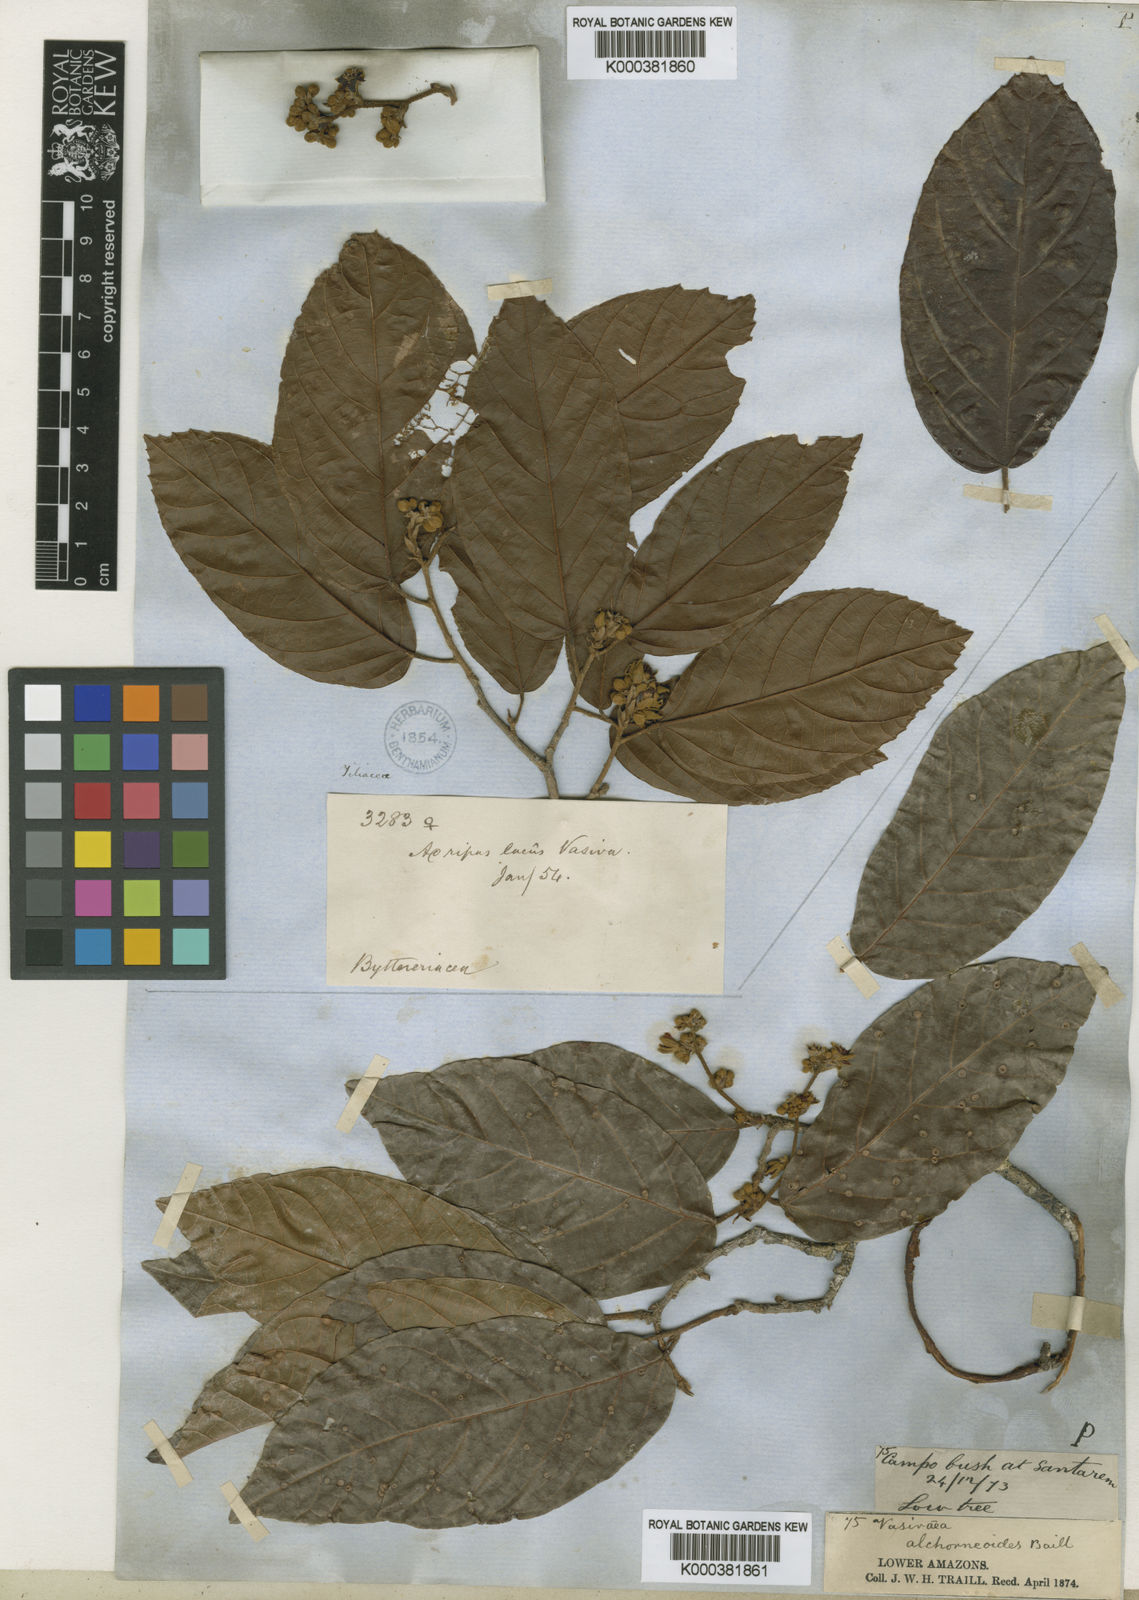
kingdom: Plantae
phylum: Tracheophyta
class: Magnoliopsida
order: Malvales
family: Malvaceae
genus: Vasivaea
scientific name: Vasivaea alchorneoides
